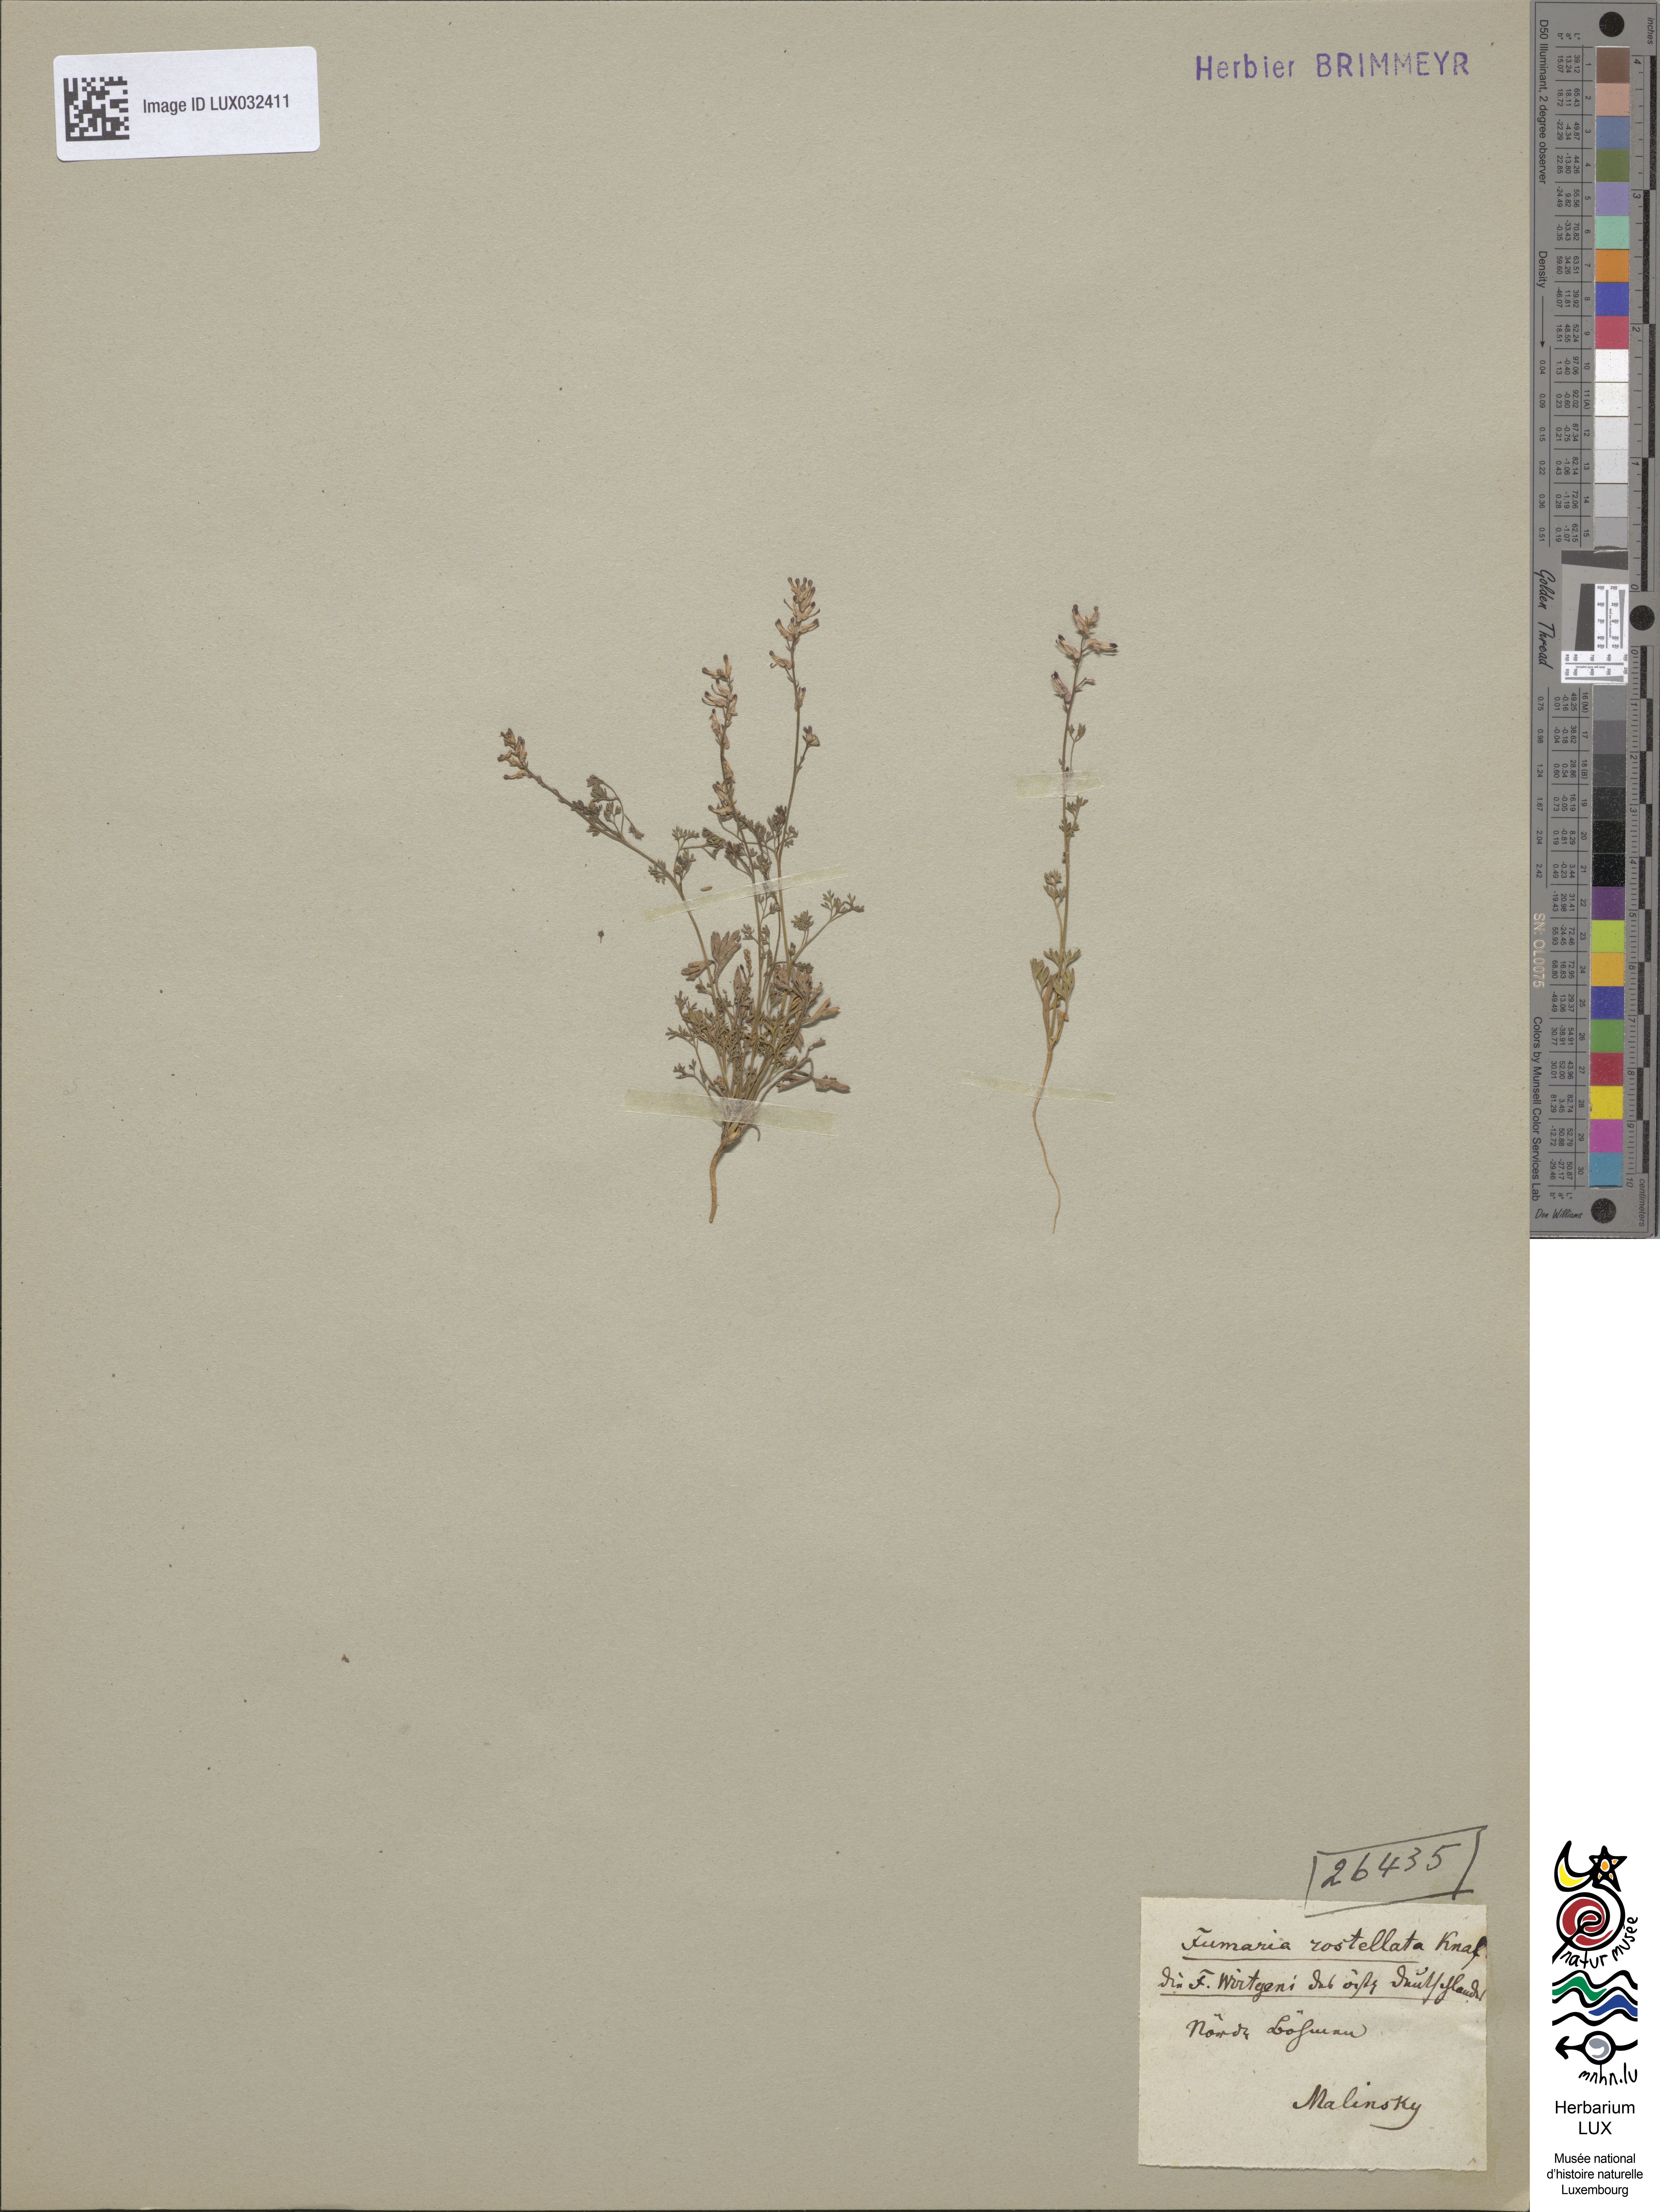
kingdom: Plantae
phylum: Tracheophyta
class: Magnoliopsida
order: Ranunculales
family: Papaveraceae
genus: Fumaria
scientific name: Fumaria rostellata
